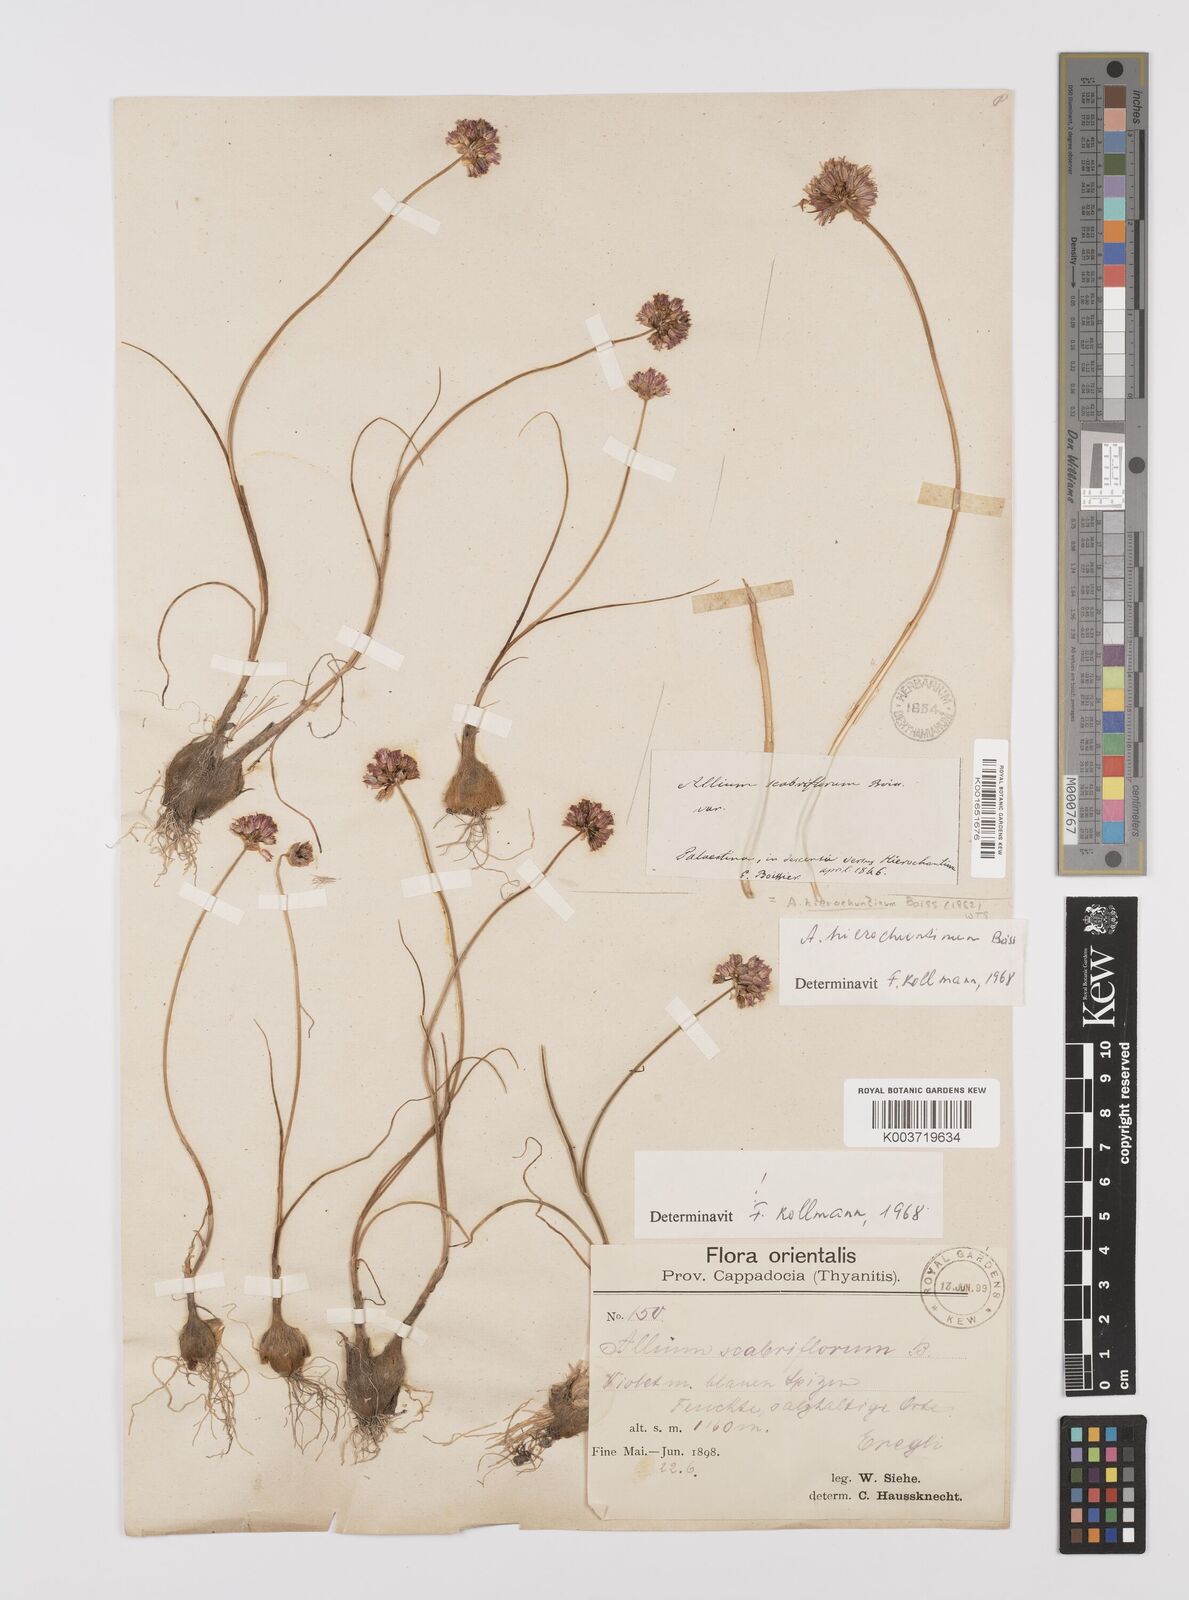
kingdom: Plantae
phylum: Tracheophyta
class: Liliopsida
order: Asparagales
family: Amaryllidaceae
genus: Allium
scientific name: Allium ascalonicum
